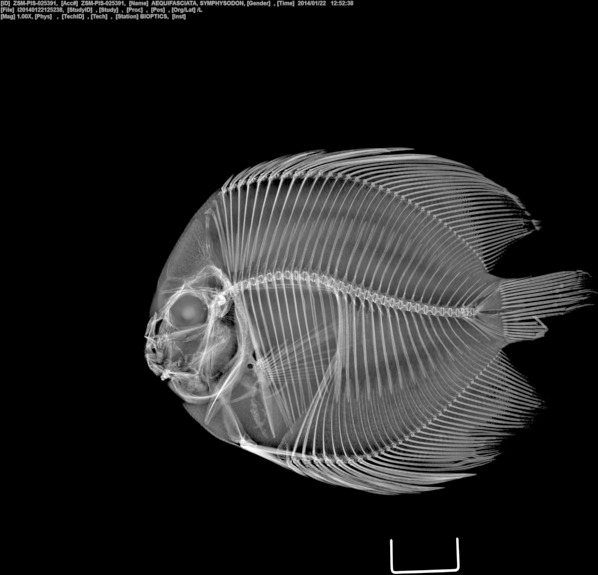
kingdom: Animalia
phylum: Chordata
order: Perciformes
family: Cichlidae
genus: Symphysodon
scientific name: Symphysodon aequifasciatus
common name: Blue discus
